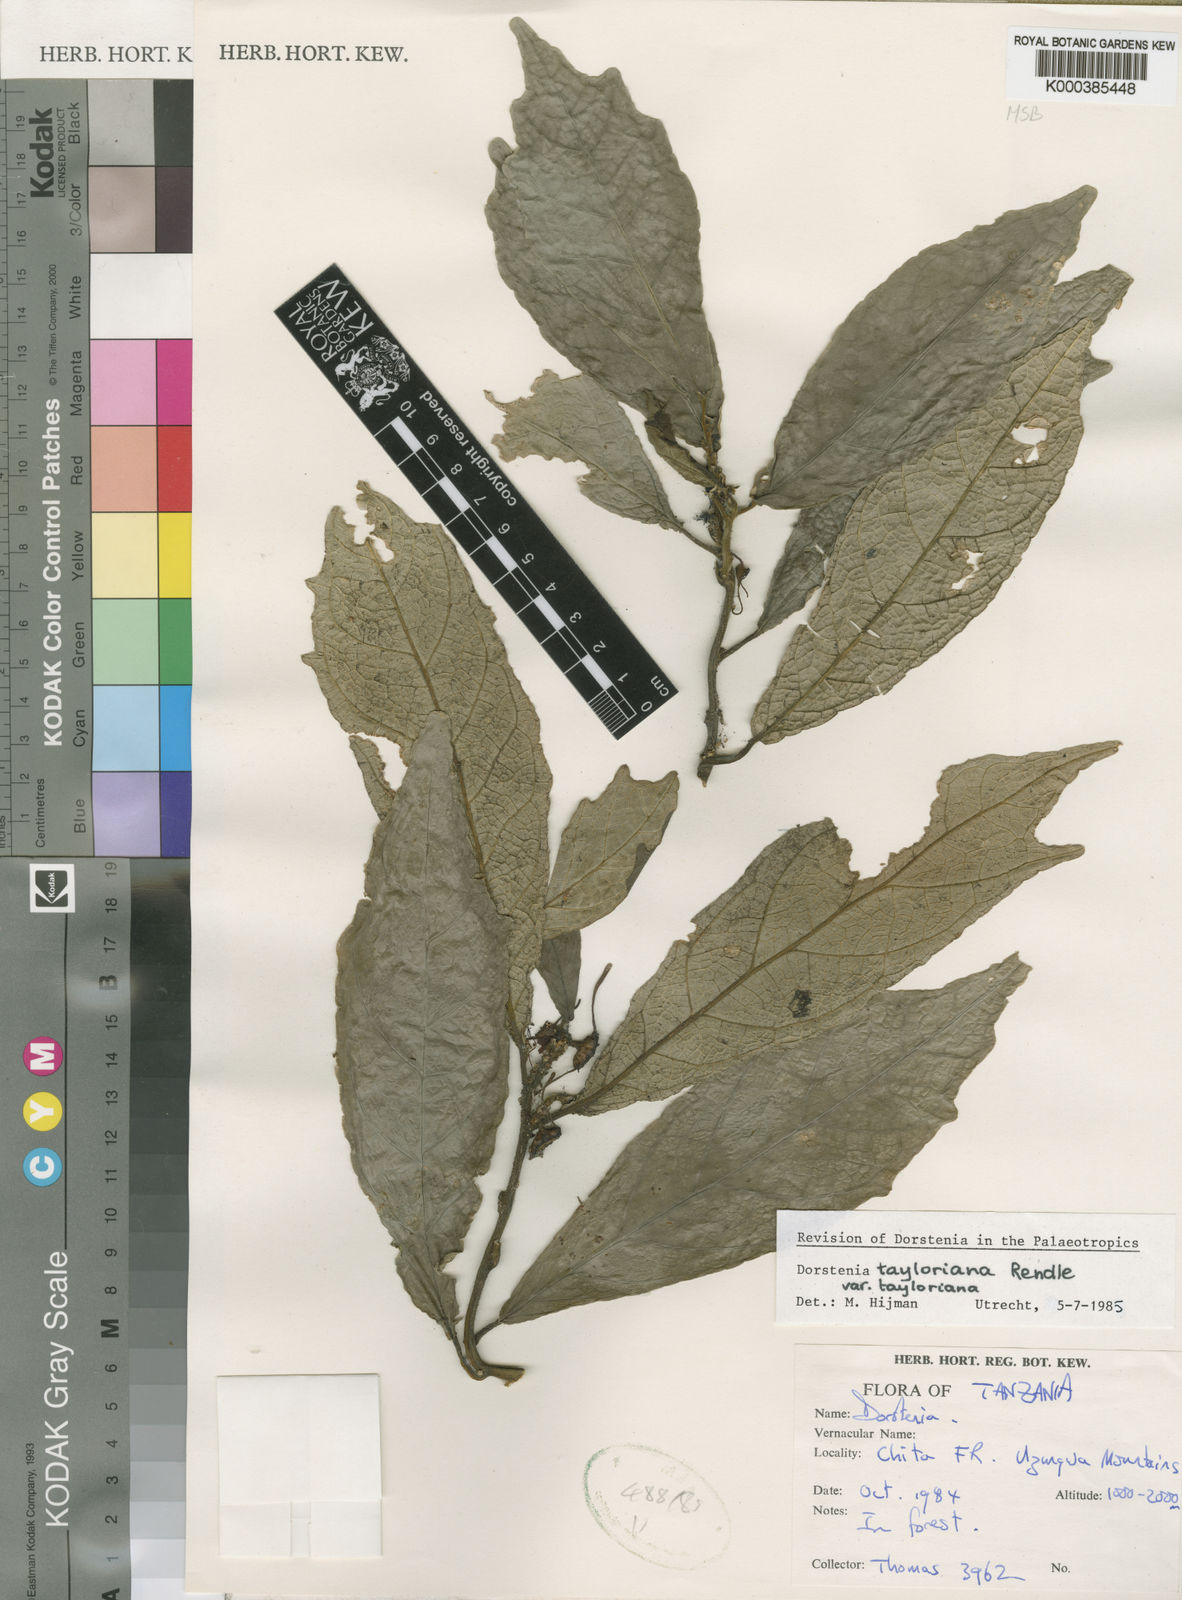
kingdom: Plantae
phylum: Tracheophyta
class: Magnoliopsida
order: Rosales
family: Moraceae
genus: Dorstenia
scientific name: Dorstenia tayloriana
